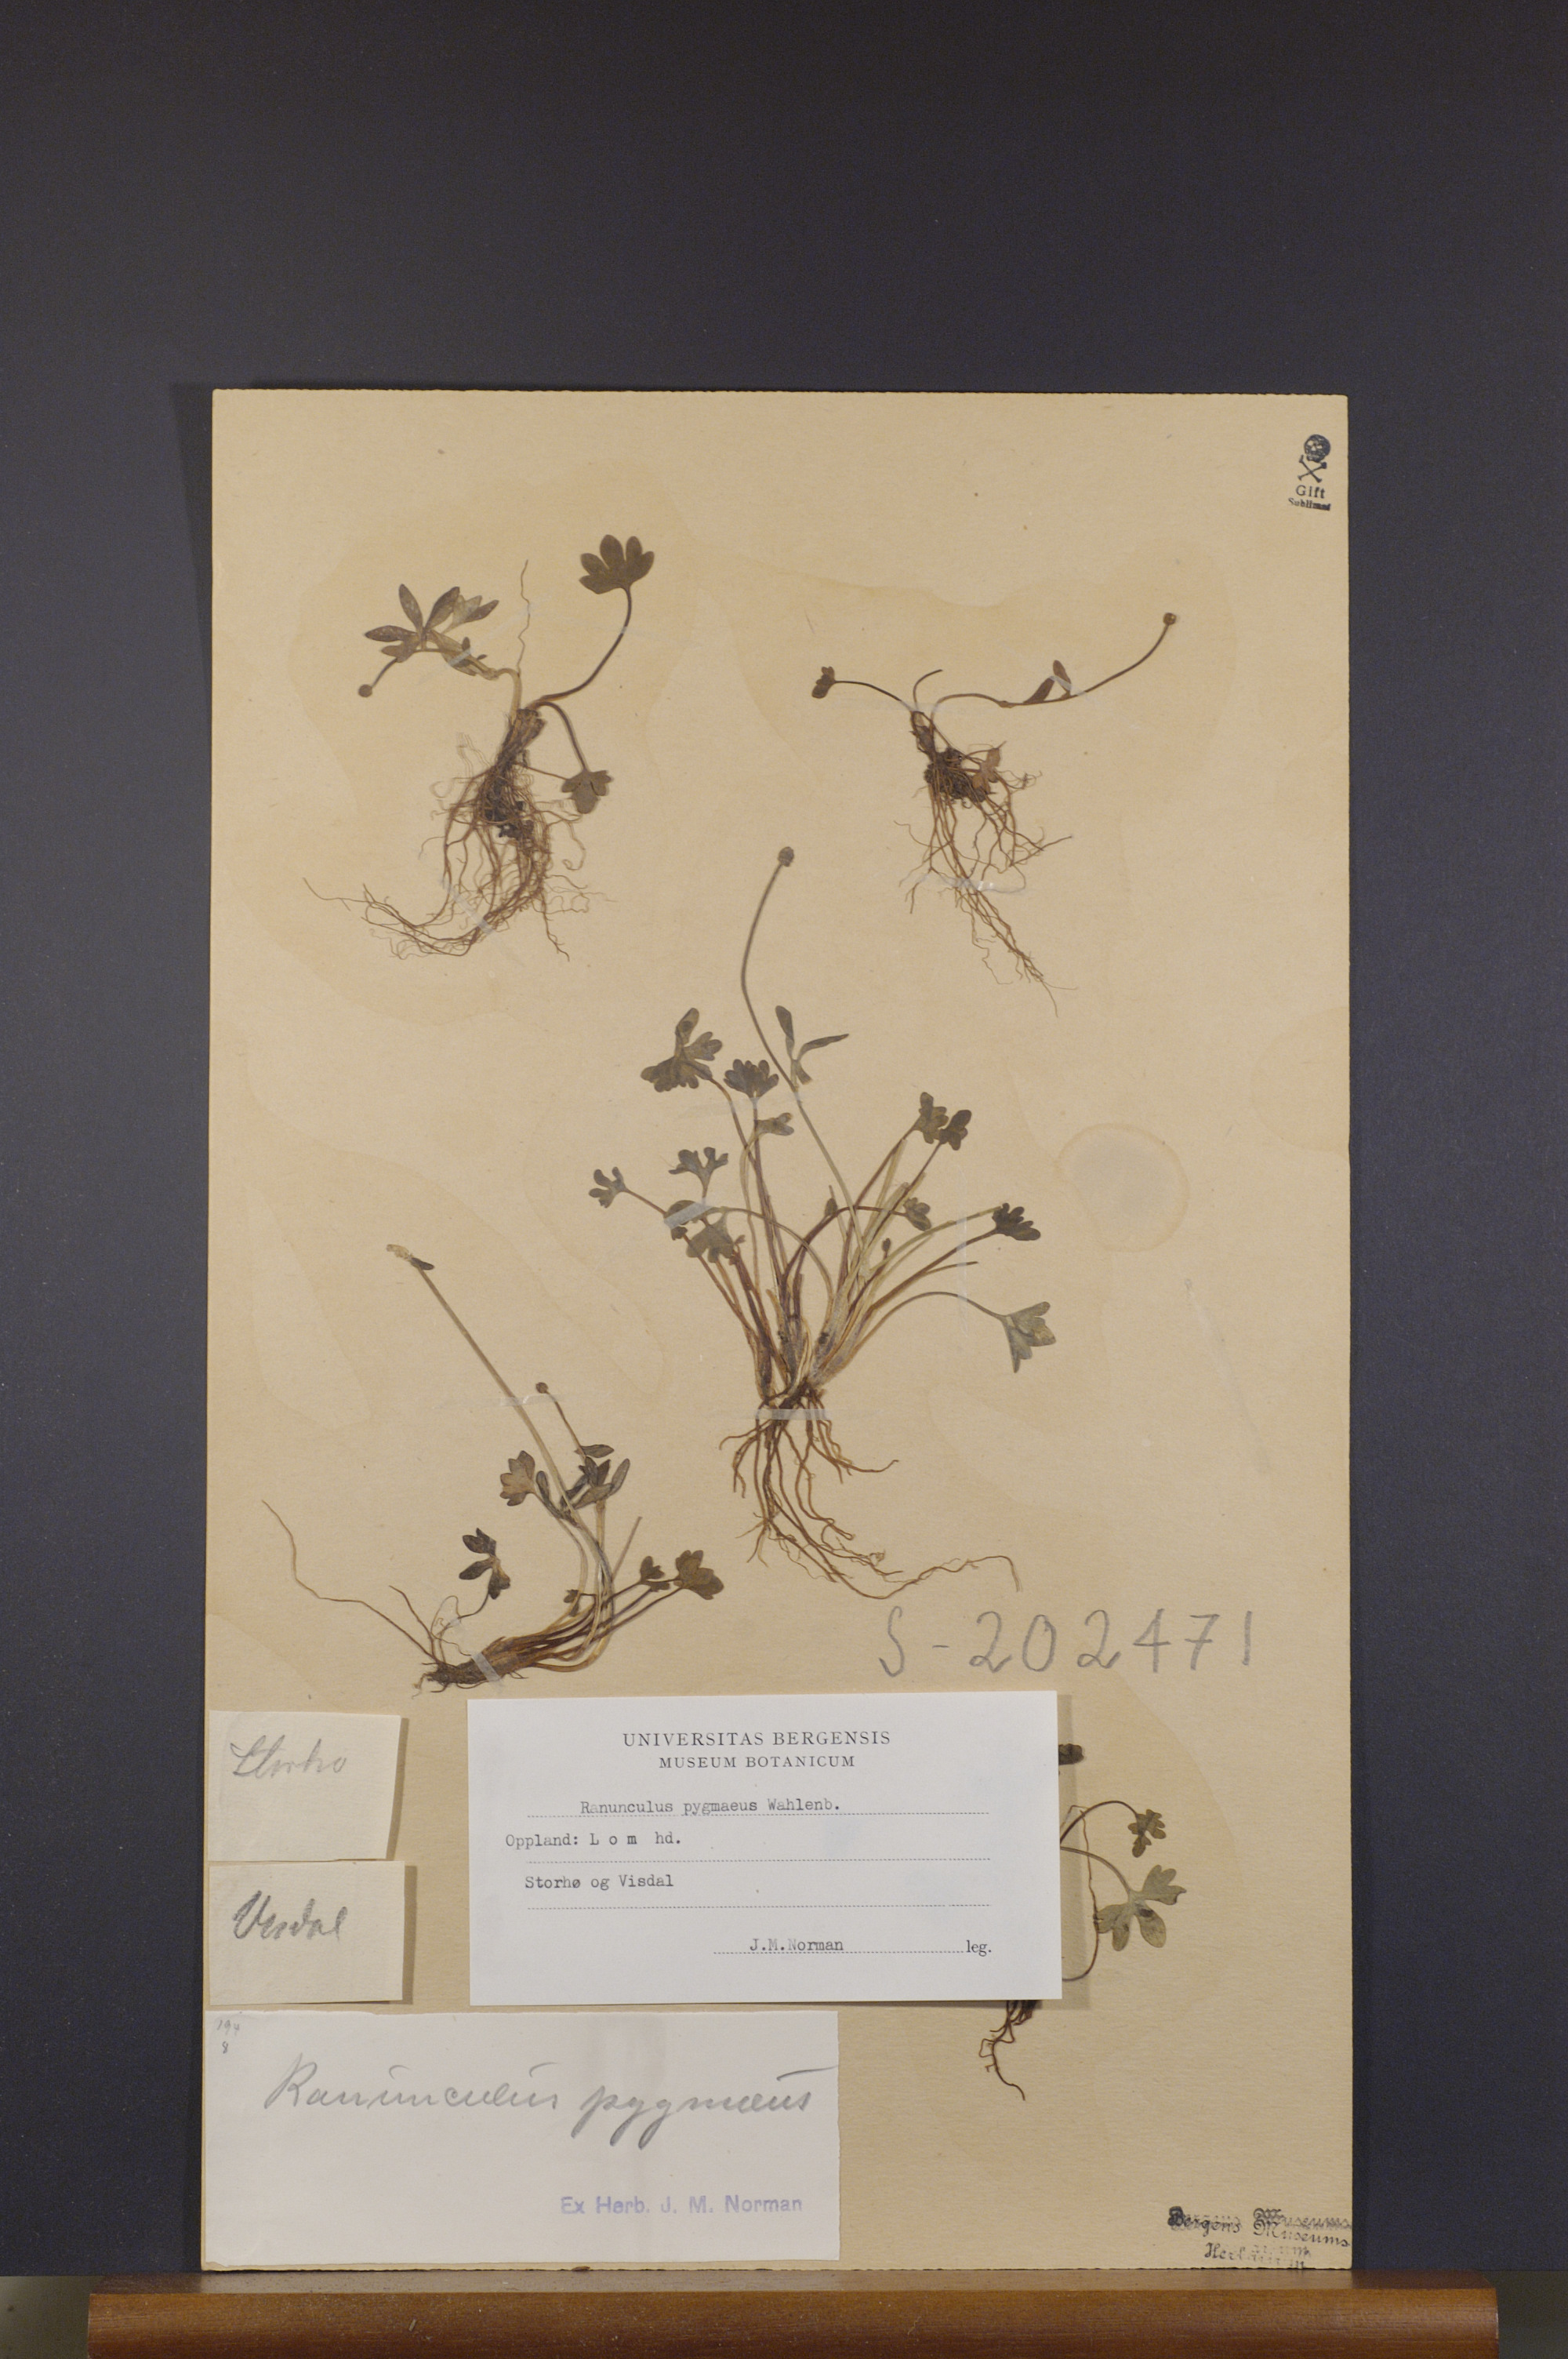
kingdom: Plantae
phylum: Tracheophyta
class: Magnoliopsida
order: Ranunculales
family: Ranunculaceae
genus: Ranunculus
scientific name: Ranunculus pygmaeus
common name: Dwarf buttercup
